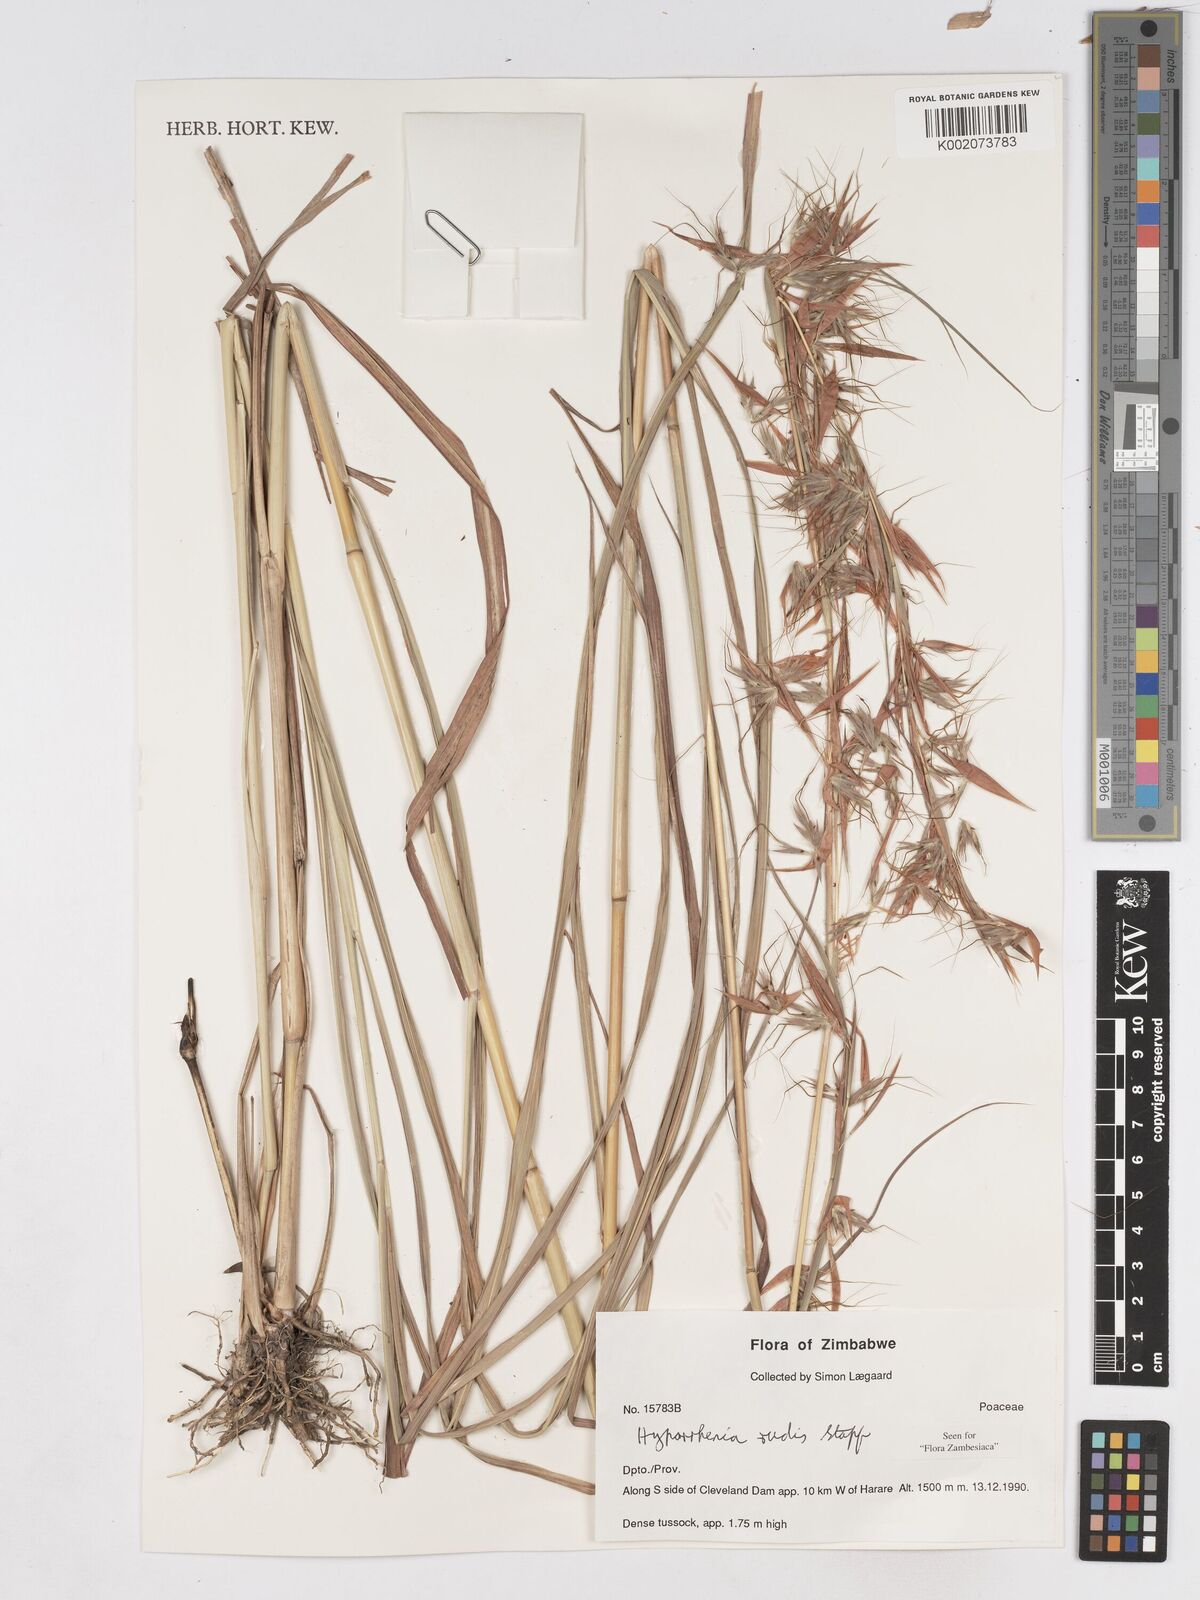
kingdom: Plantae
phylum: Tracheophyta
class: Liliopsida
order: Poales
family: Poaceae
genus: Hyparrhenia
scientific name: Hyparrhenia rudis
